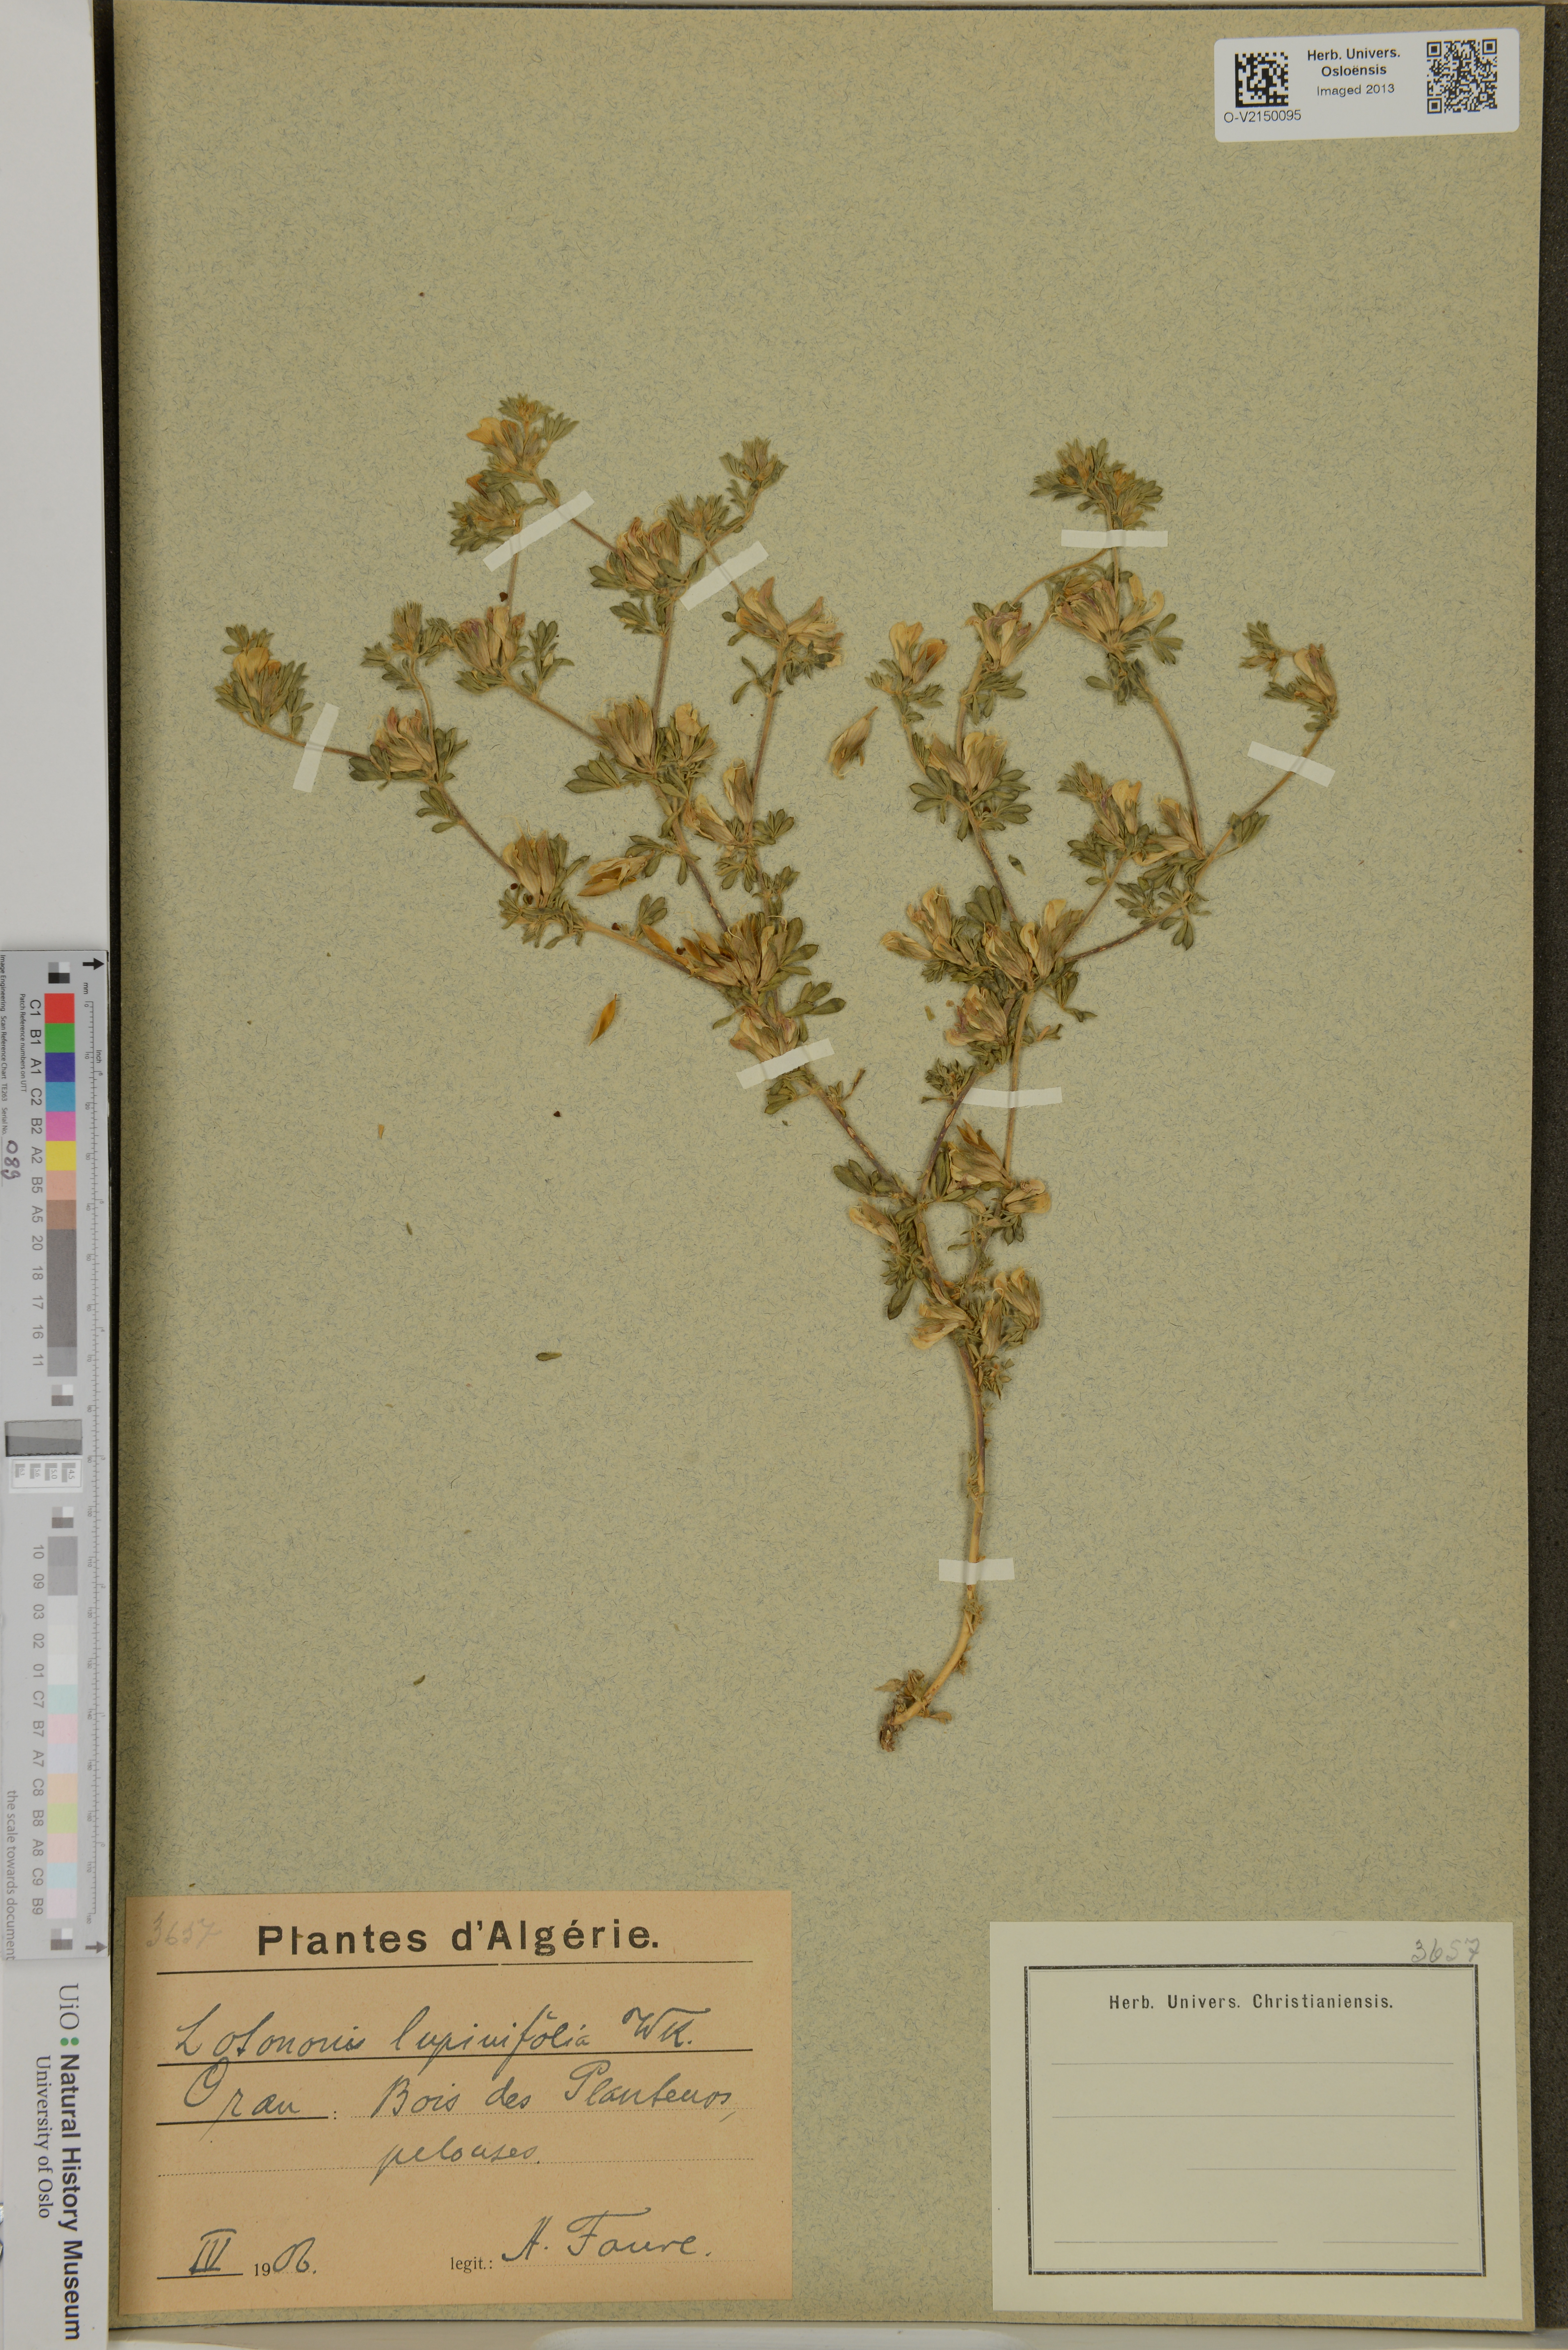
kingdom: Plantae
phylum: Tracheophyta
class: Magnoliopsida
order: Fabales
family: Fabaceae
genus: Leobordea
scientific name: Leobordea lupinifolia
